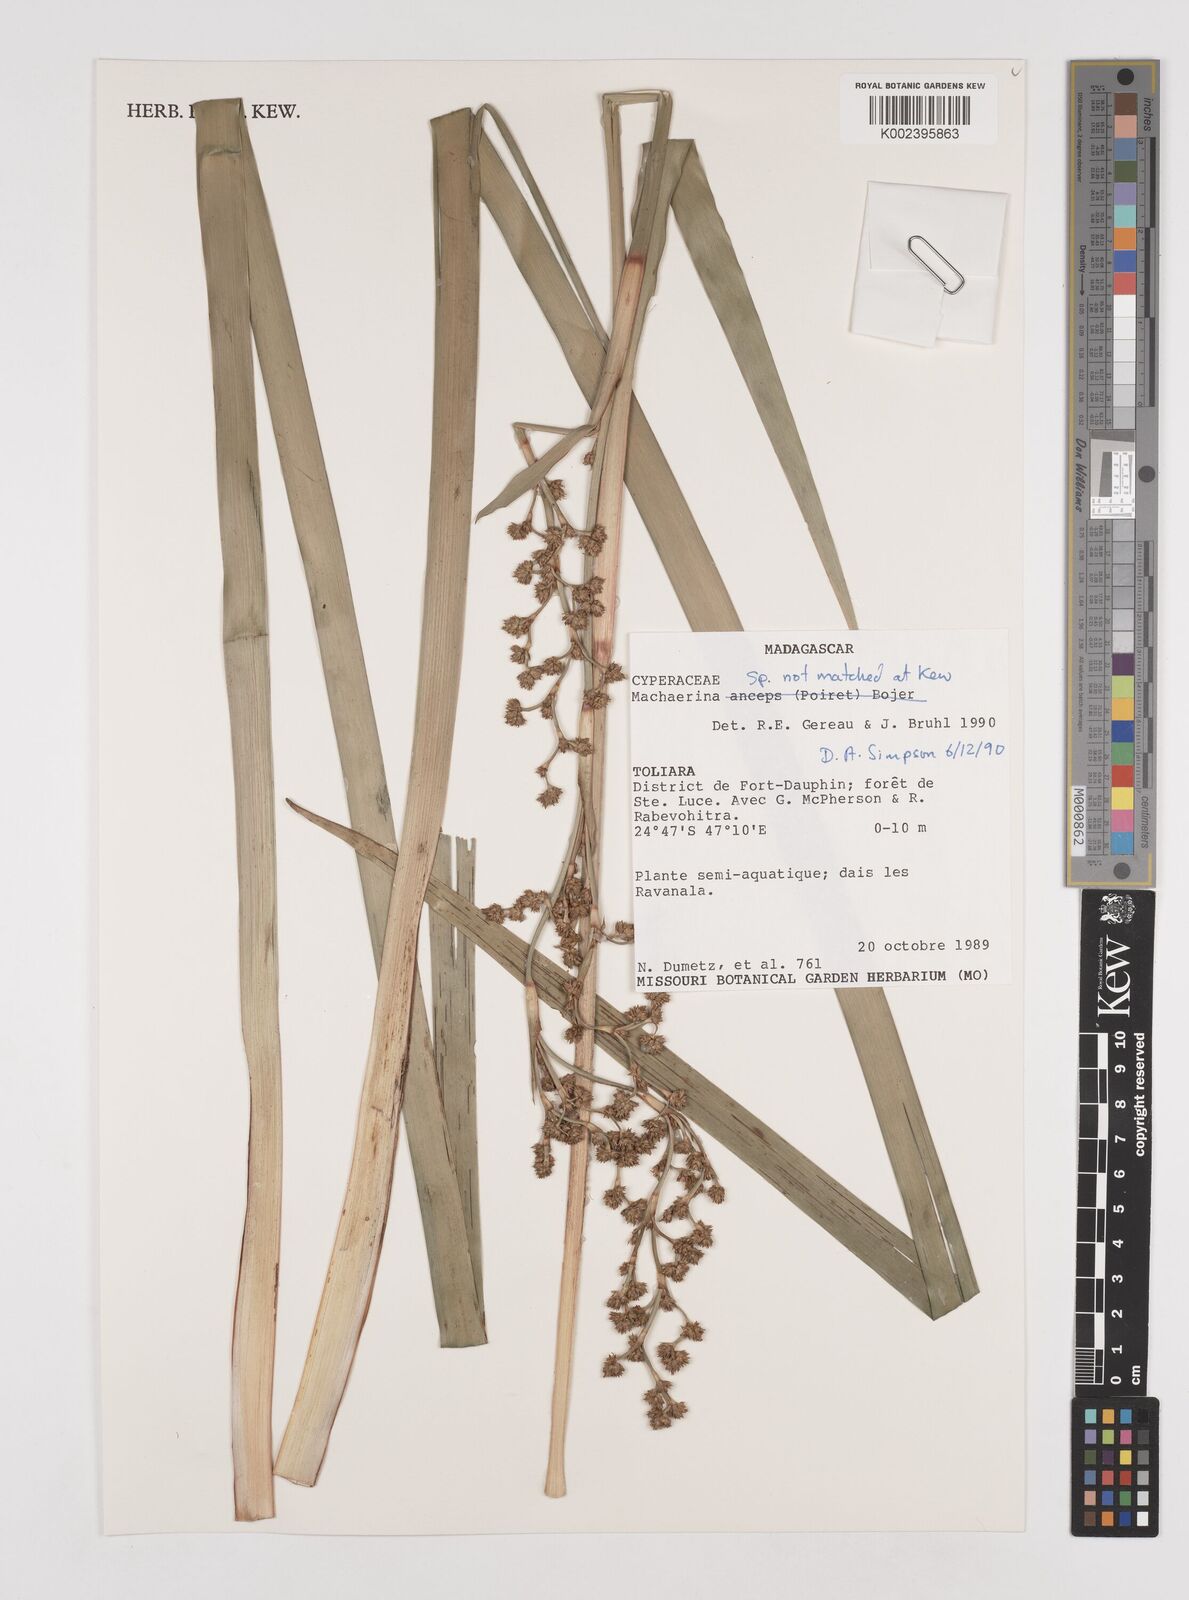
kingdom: Plantae
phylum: Tracheophyta
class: Liliopsida
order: Poales
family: Cyperaceae
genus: Machaerina
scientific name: Machaerina
